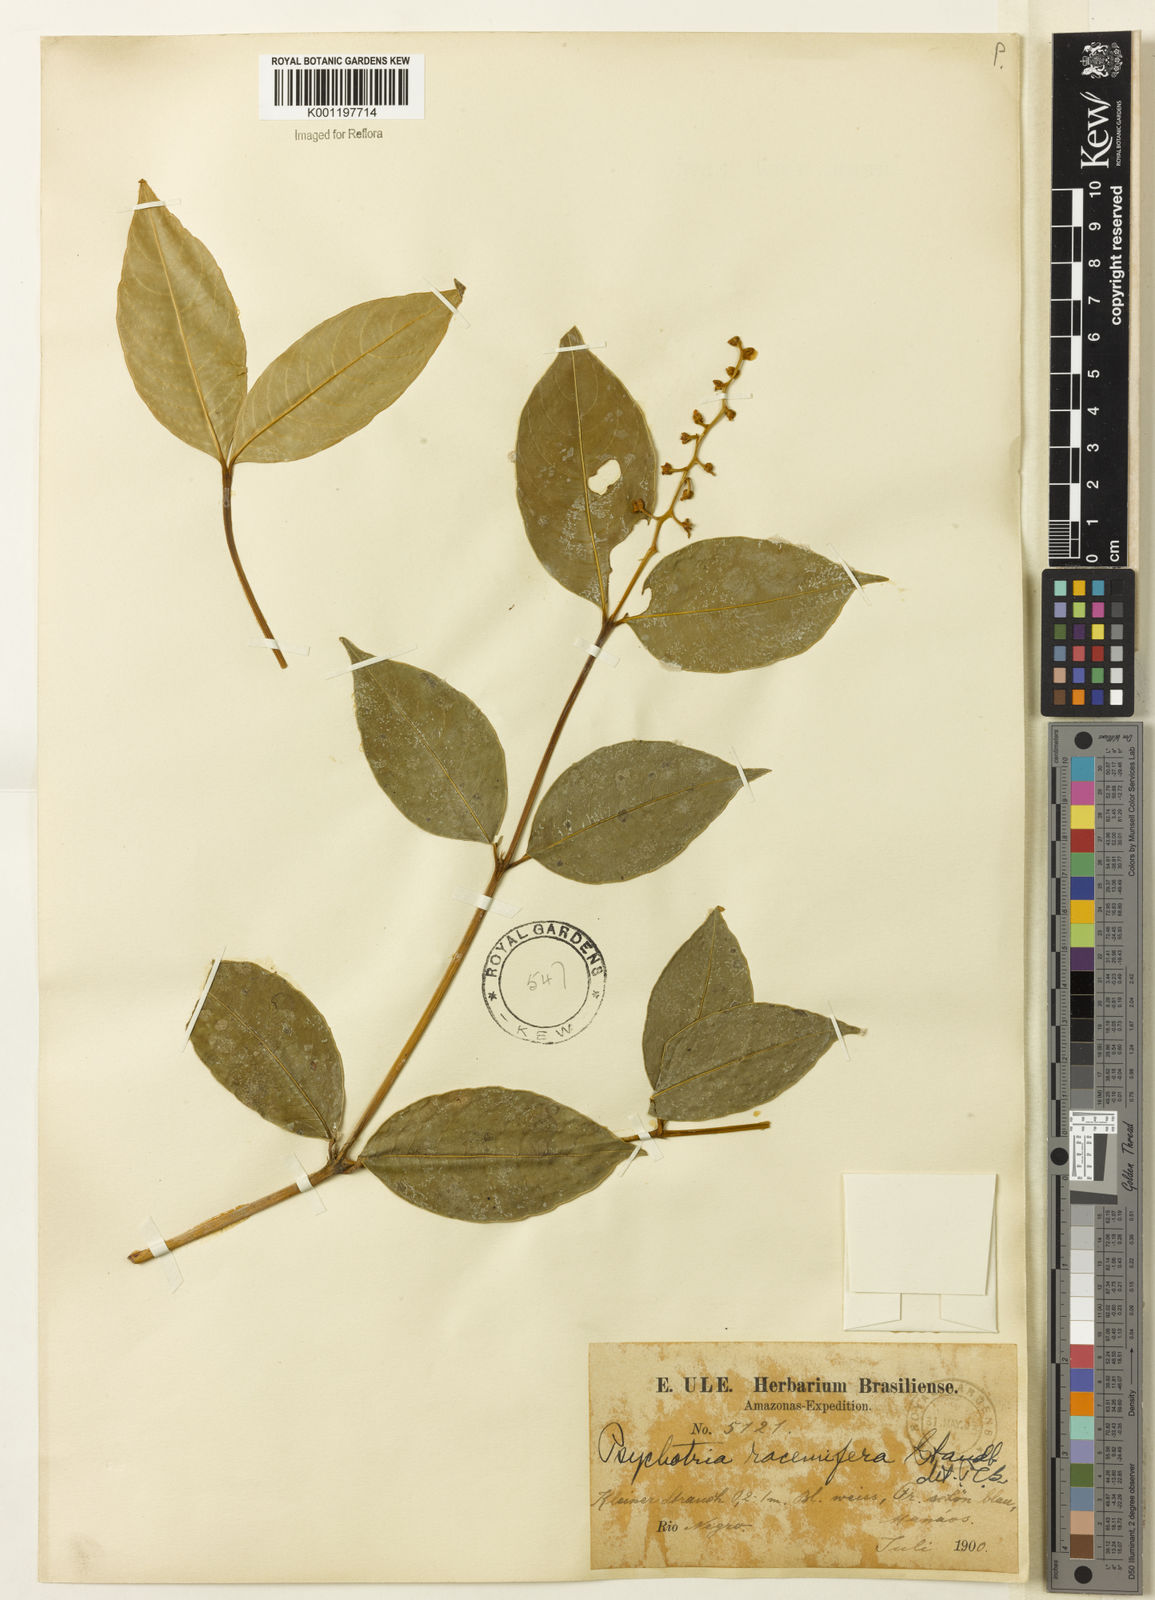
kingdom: Plantae
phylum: Tracheophyta
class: Magnoliopsida
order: Gentianales
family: Rubiaceae
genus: Palicourea
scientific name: Palicourea polycephala
